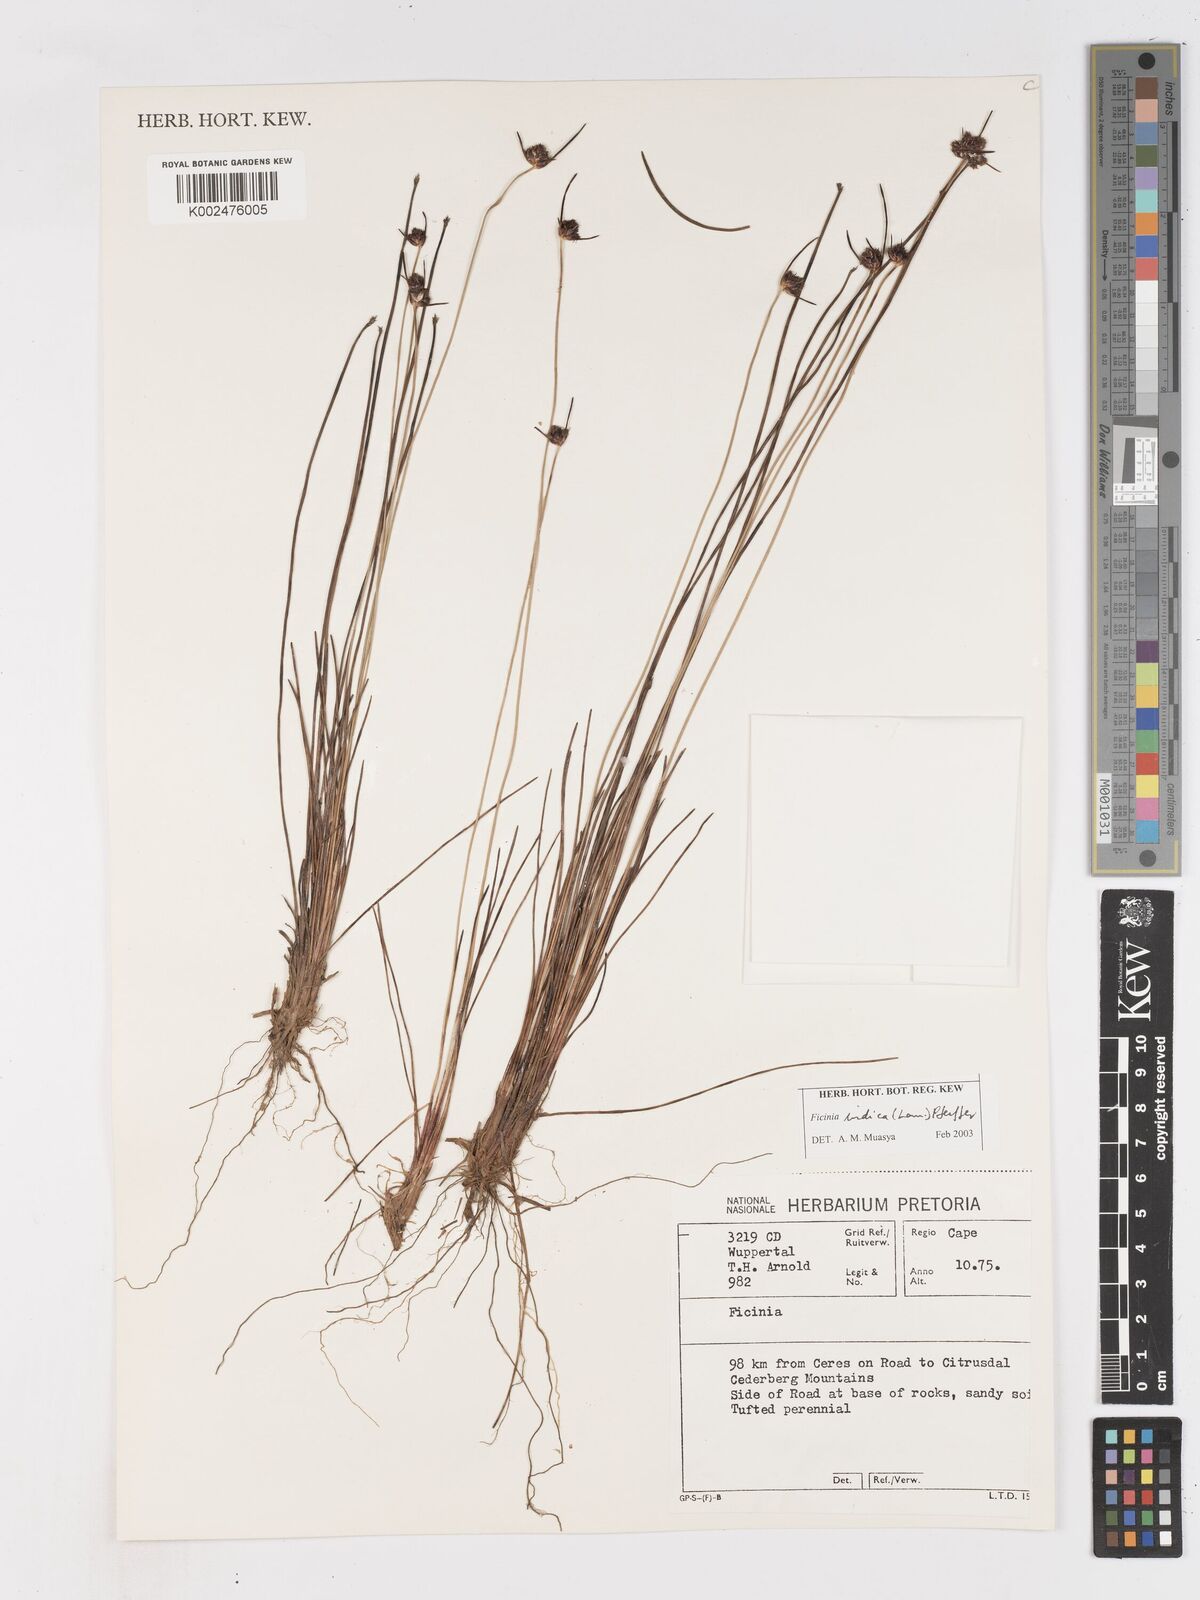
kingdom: Plantae
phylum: Tracheophyta
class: Liliopsida
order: Poales
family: Cyperaceae
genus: Ficinia
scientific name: Ficinia indica
